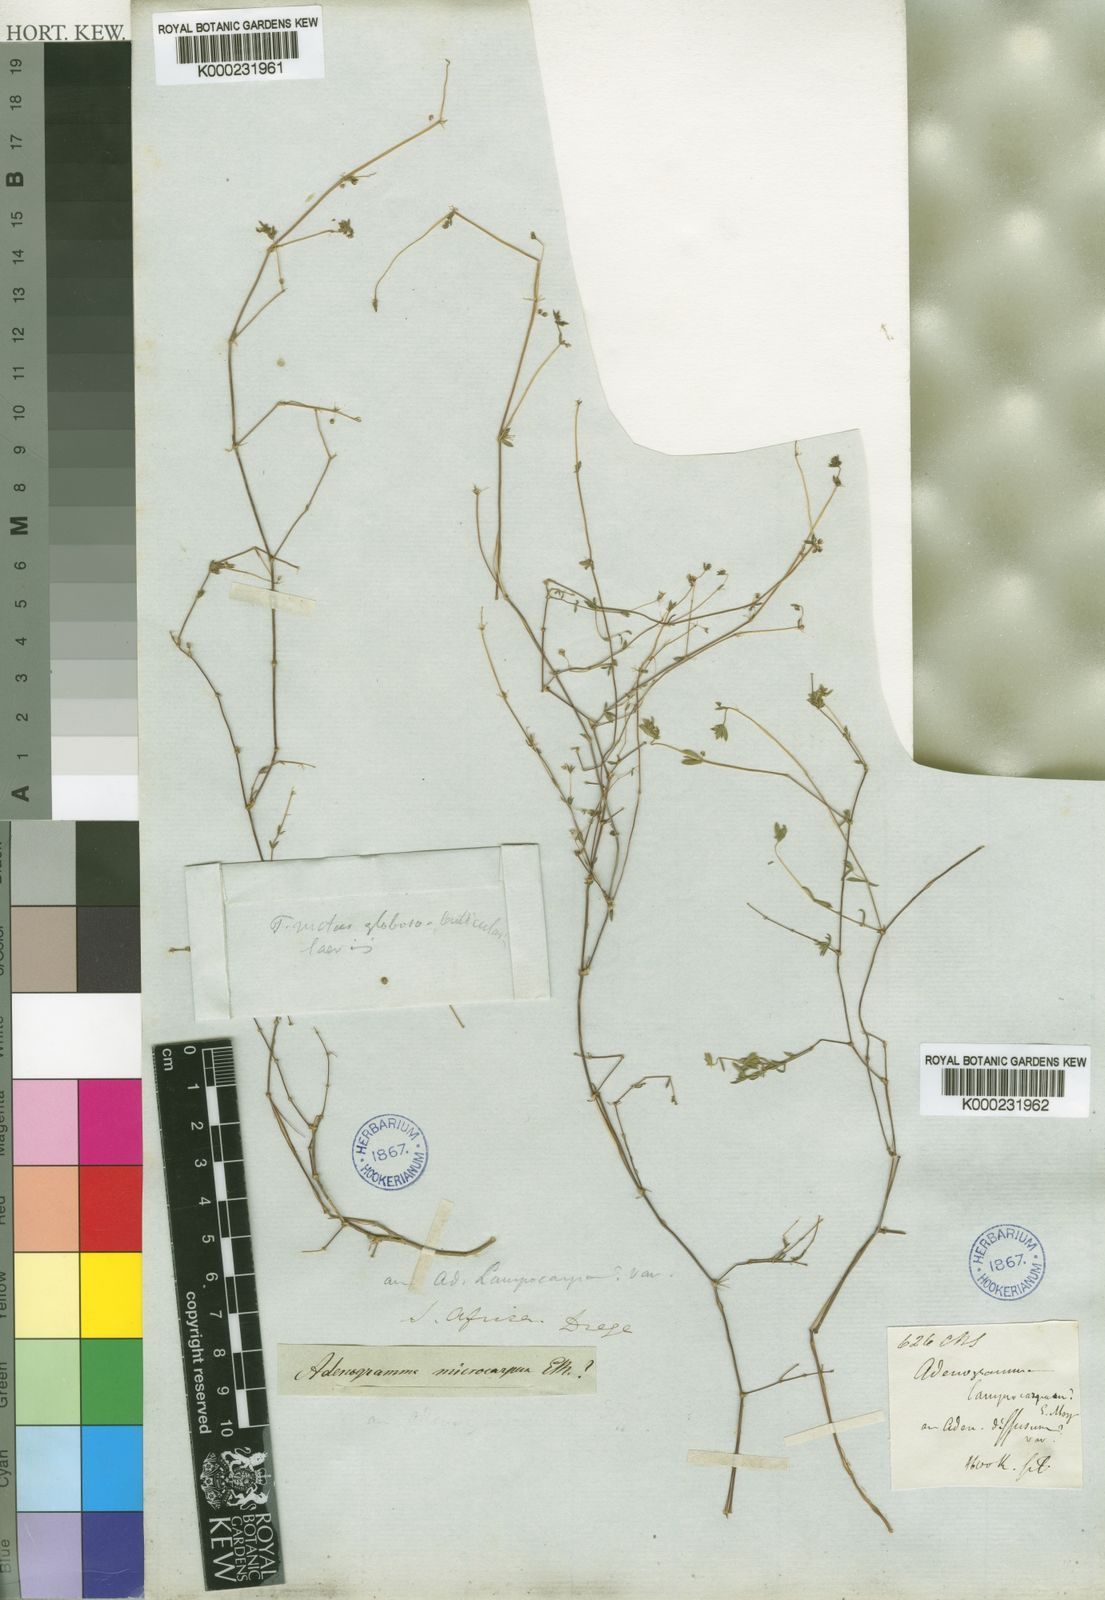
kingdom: Plantae
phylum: Tracheophyta
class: Magnoliopsida
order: Caryophyllales
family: Molluginaceae
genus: Adenogramma
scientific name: Adenogramma lichtensteiniana
